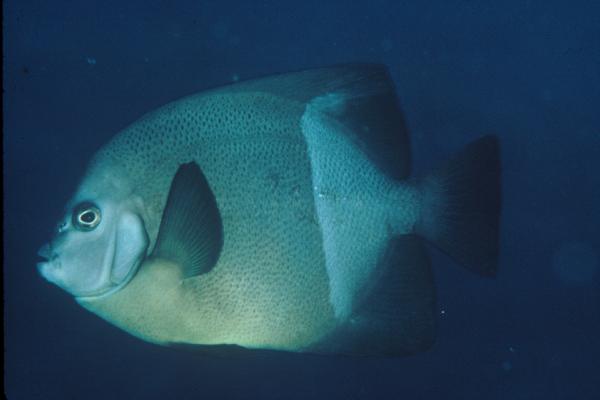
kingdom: Animalia
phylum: Chordata
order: Perciformes
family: Pomacanthidae
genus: Pomacanthus
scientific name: Pomacanthus rhomboides
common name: Old woman
